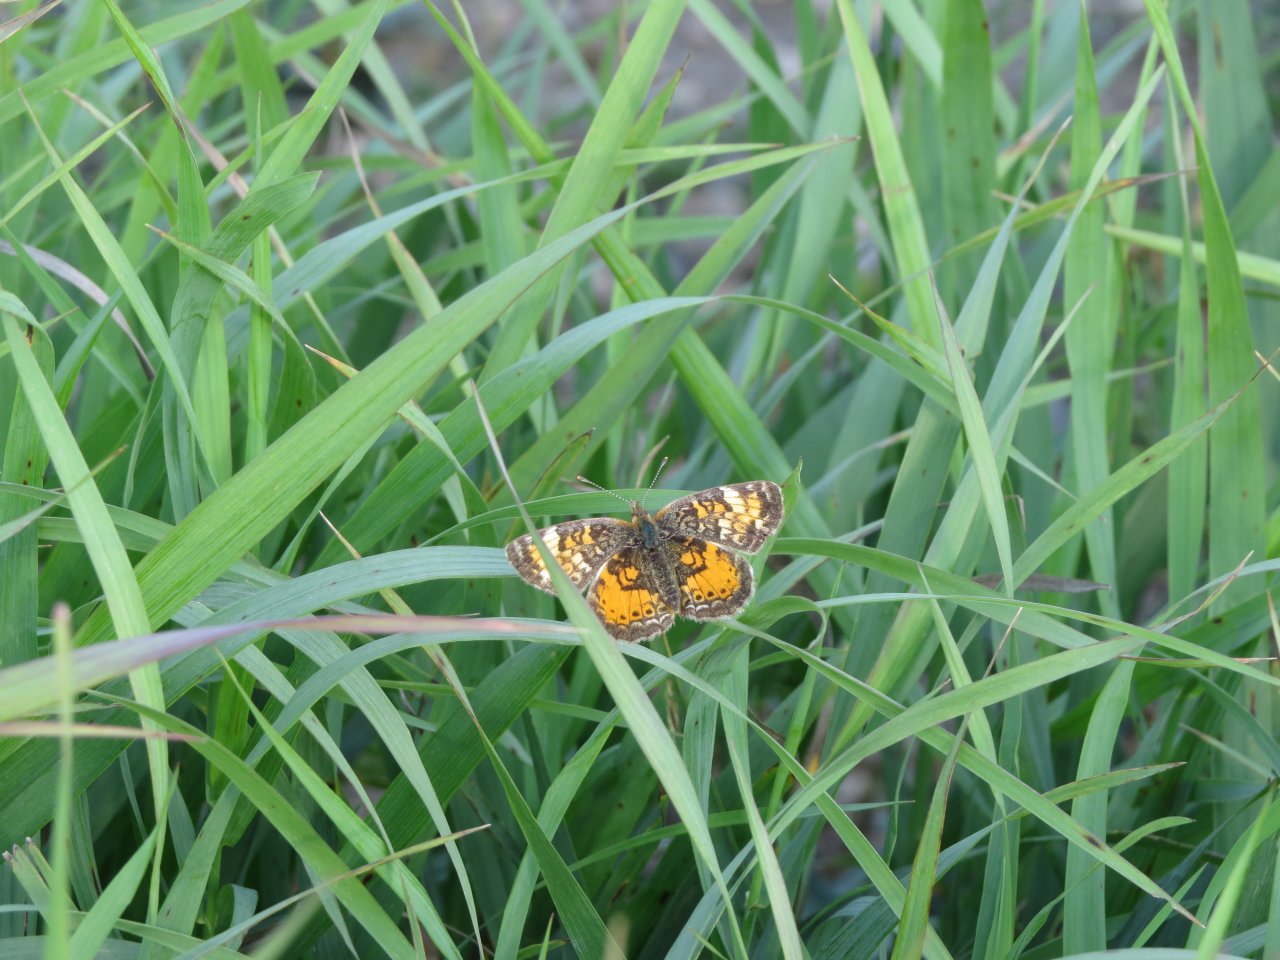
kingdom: Animalia
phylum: Arthropoda
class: Insecta
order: Lepidoptera
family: Nymphalidae
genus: Phyciodes
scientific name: Phyciodes tharos
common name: Northern Crescent
